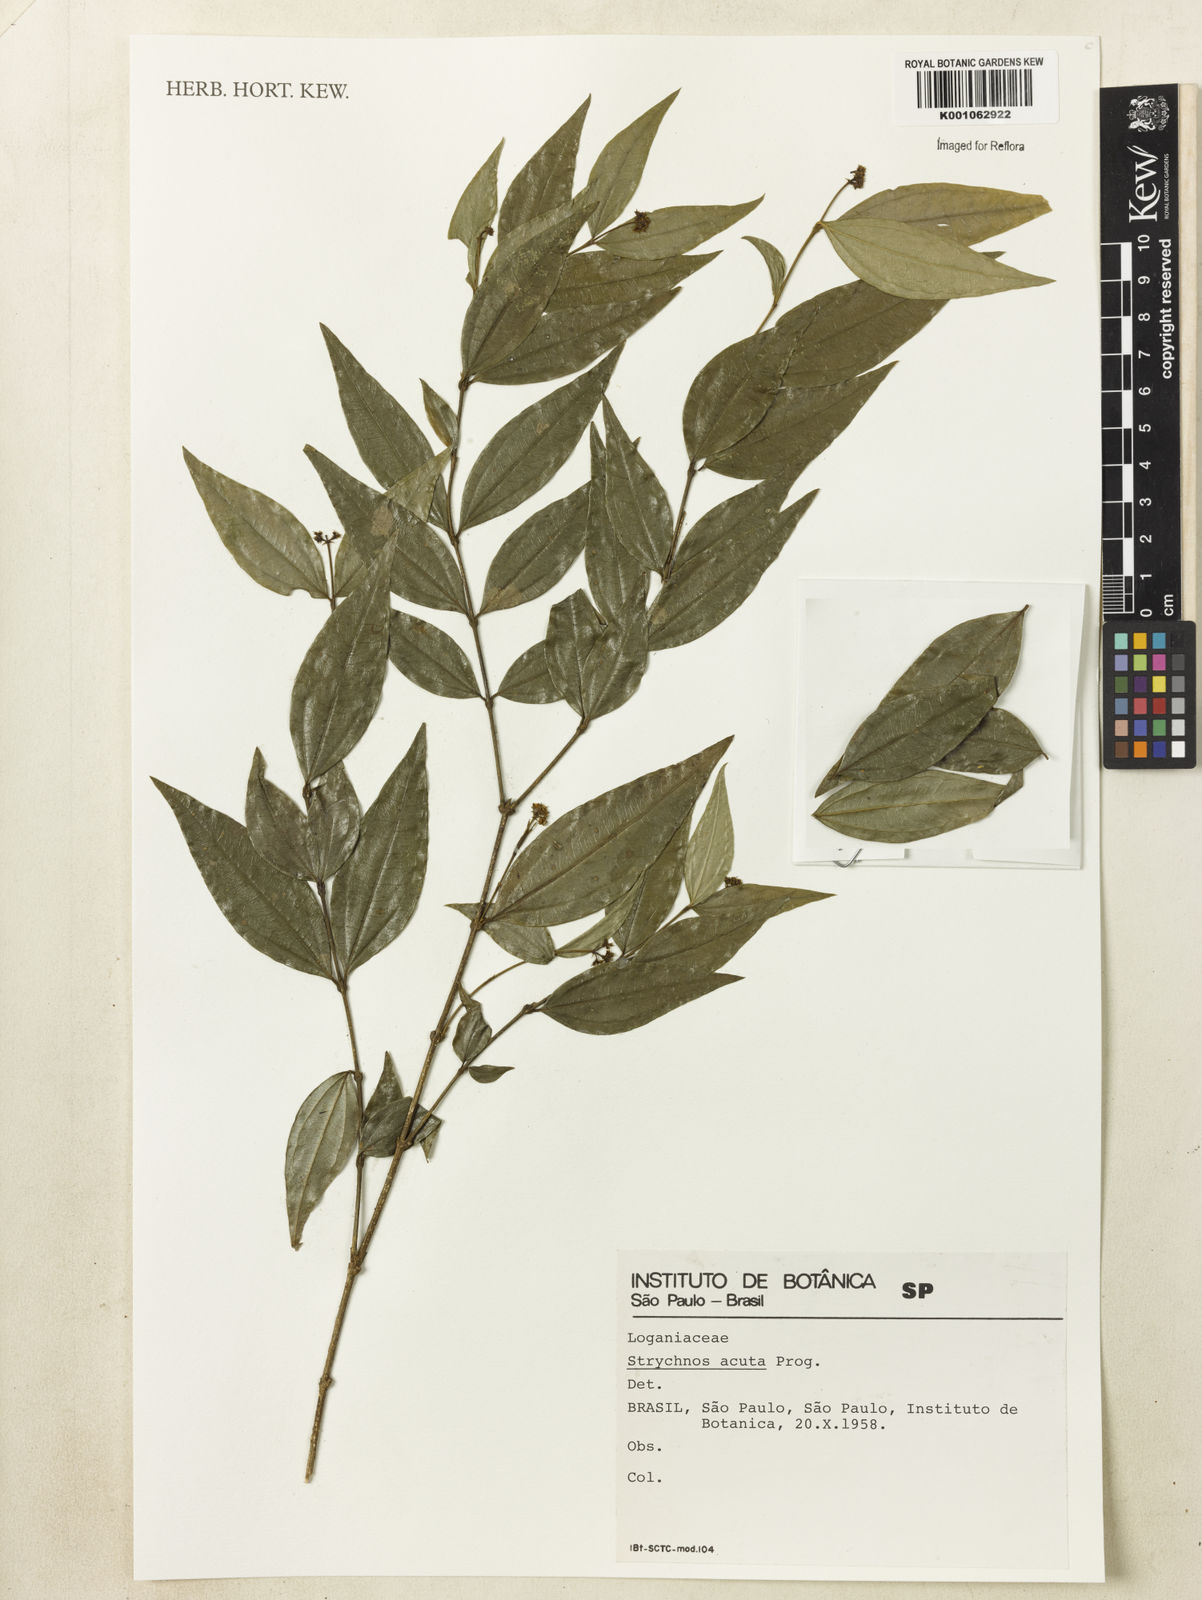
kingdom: Plantae
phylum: Tracheophyta
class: Magnoliopsida
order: Gentianales
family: Loganiaceae
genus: Strychnos
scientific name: Strychnos acuta
